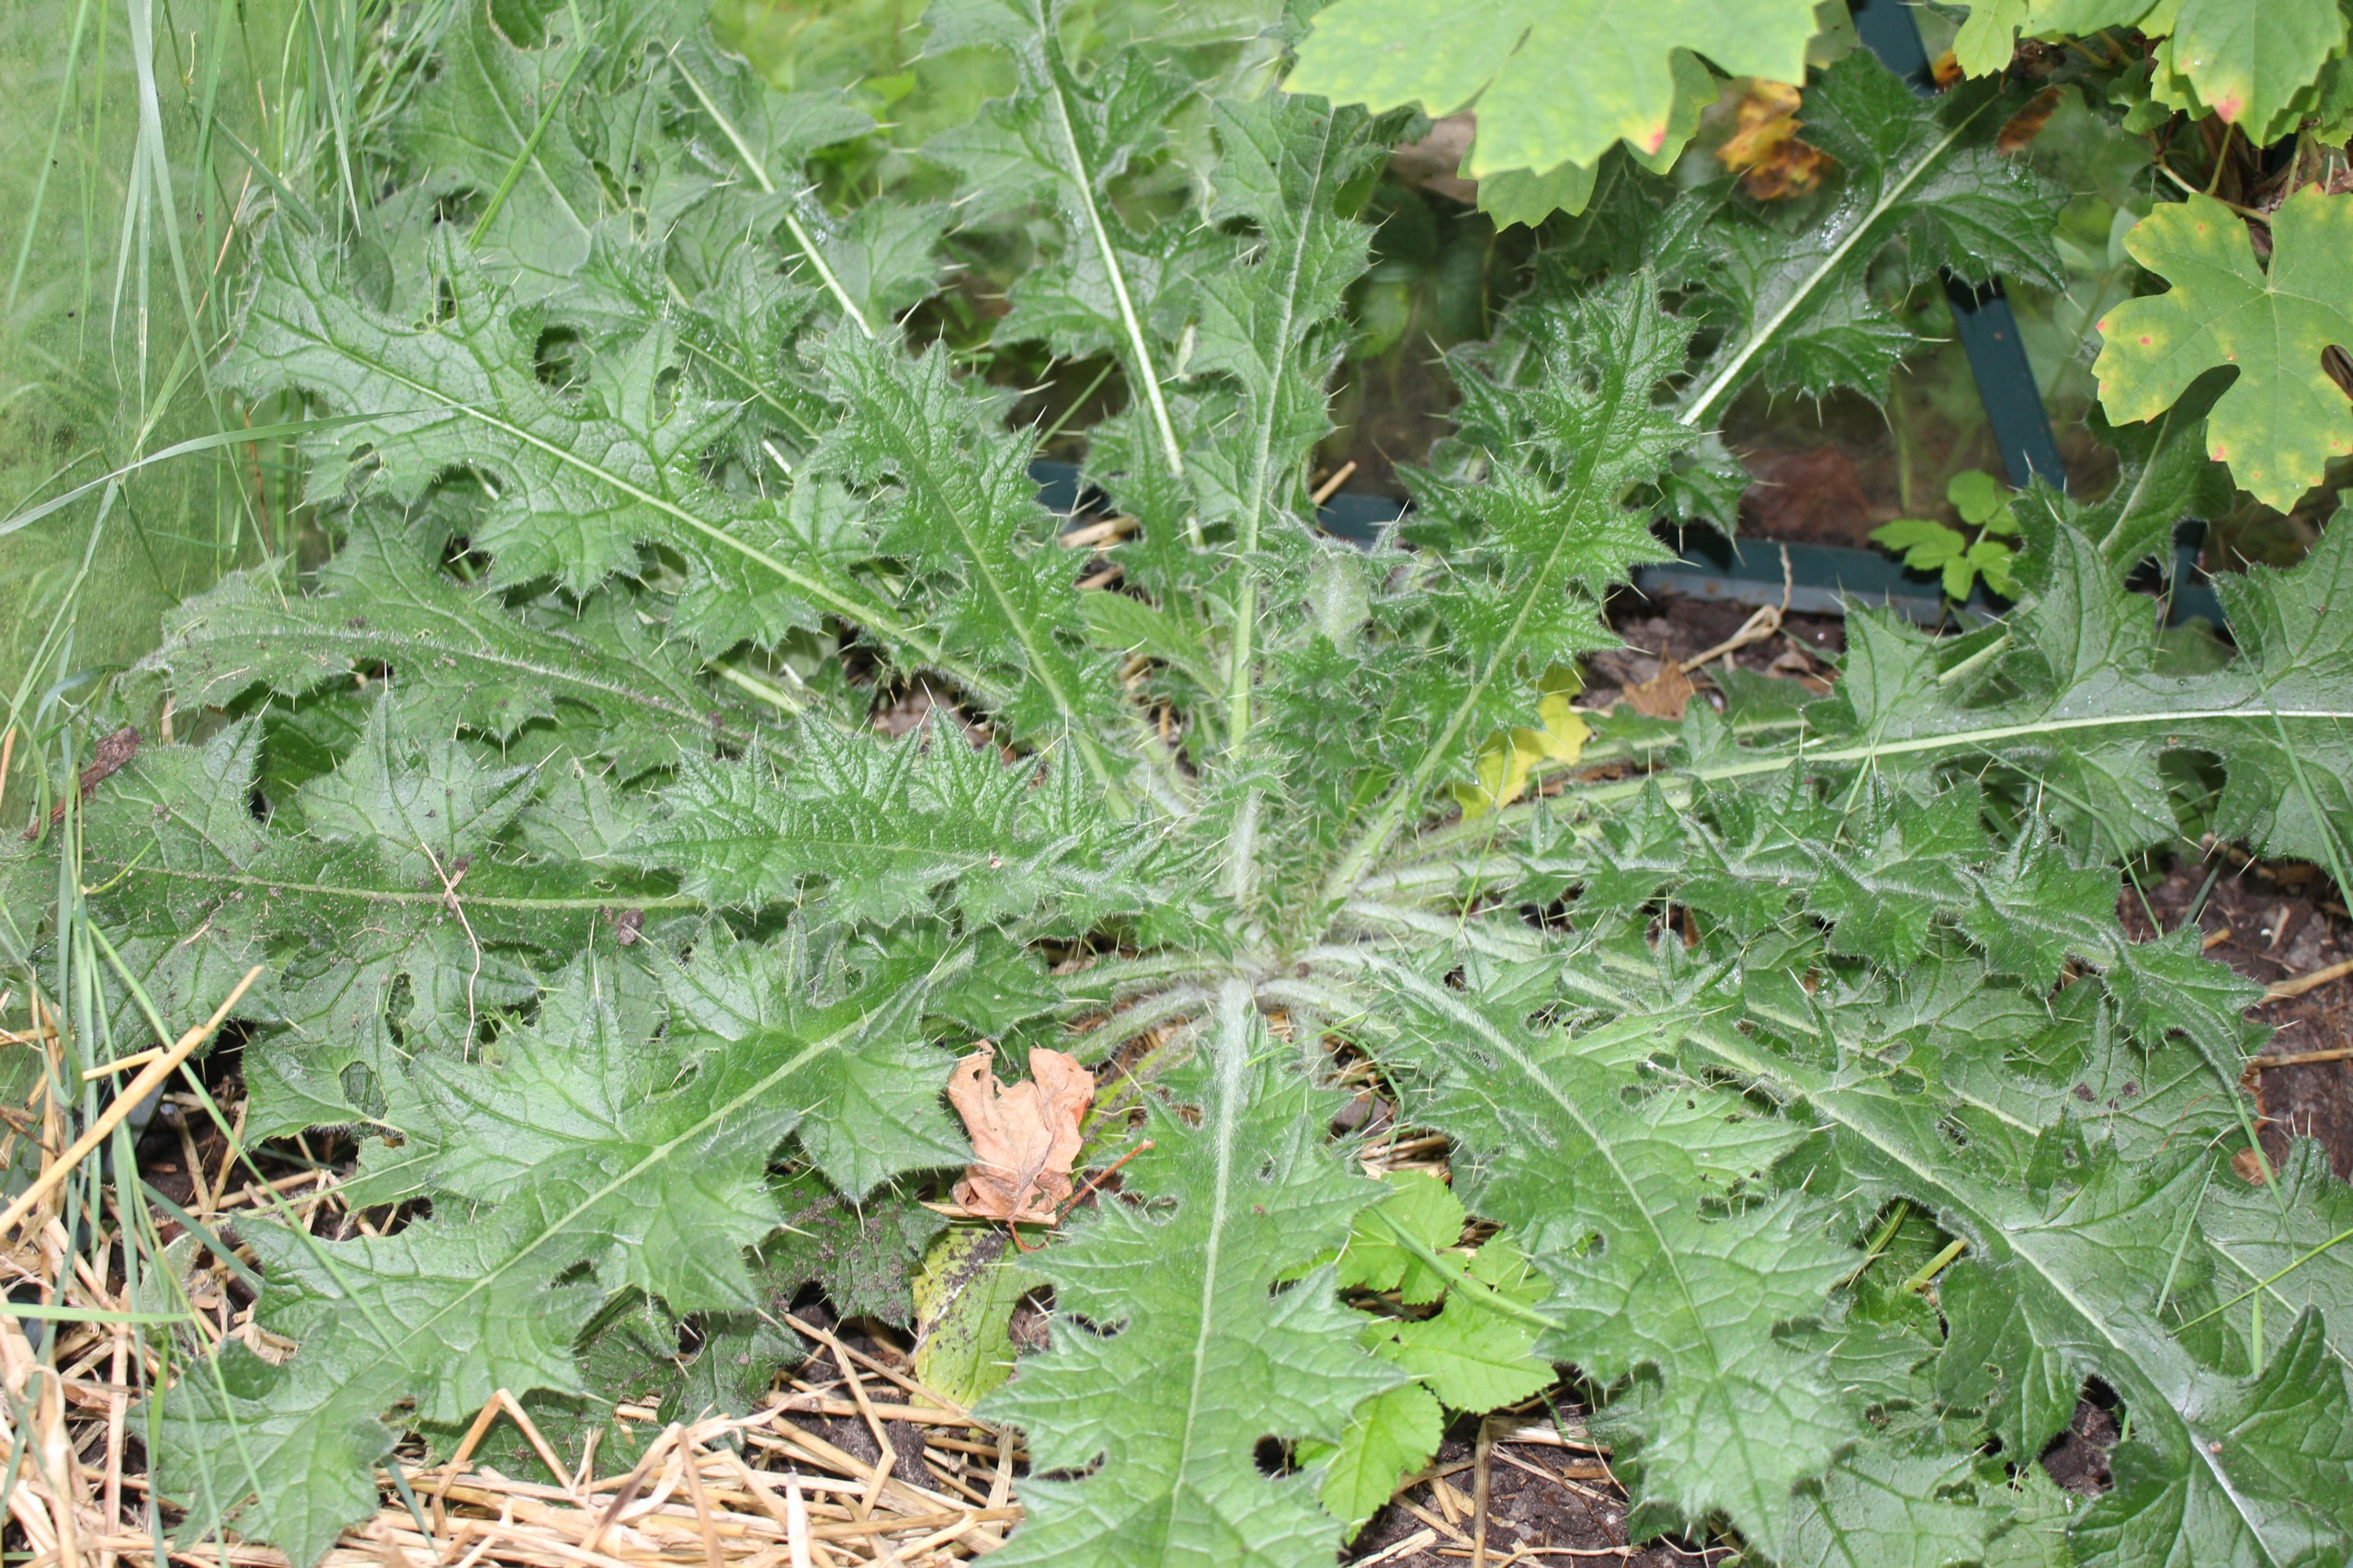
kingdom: Plantae
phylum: Tracheophyta
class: Magnoliopsida
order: Asterales
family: Asteraceae
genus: Cirsium
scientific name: Cirsium vulgare
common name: Horse-tidsel
